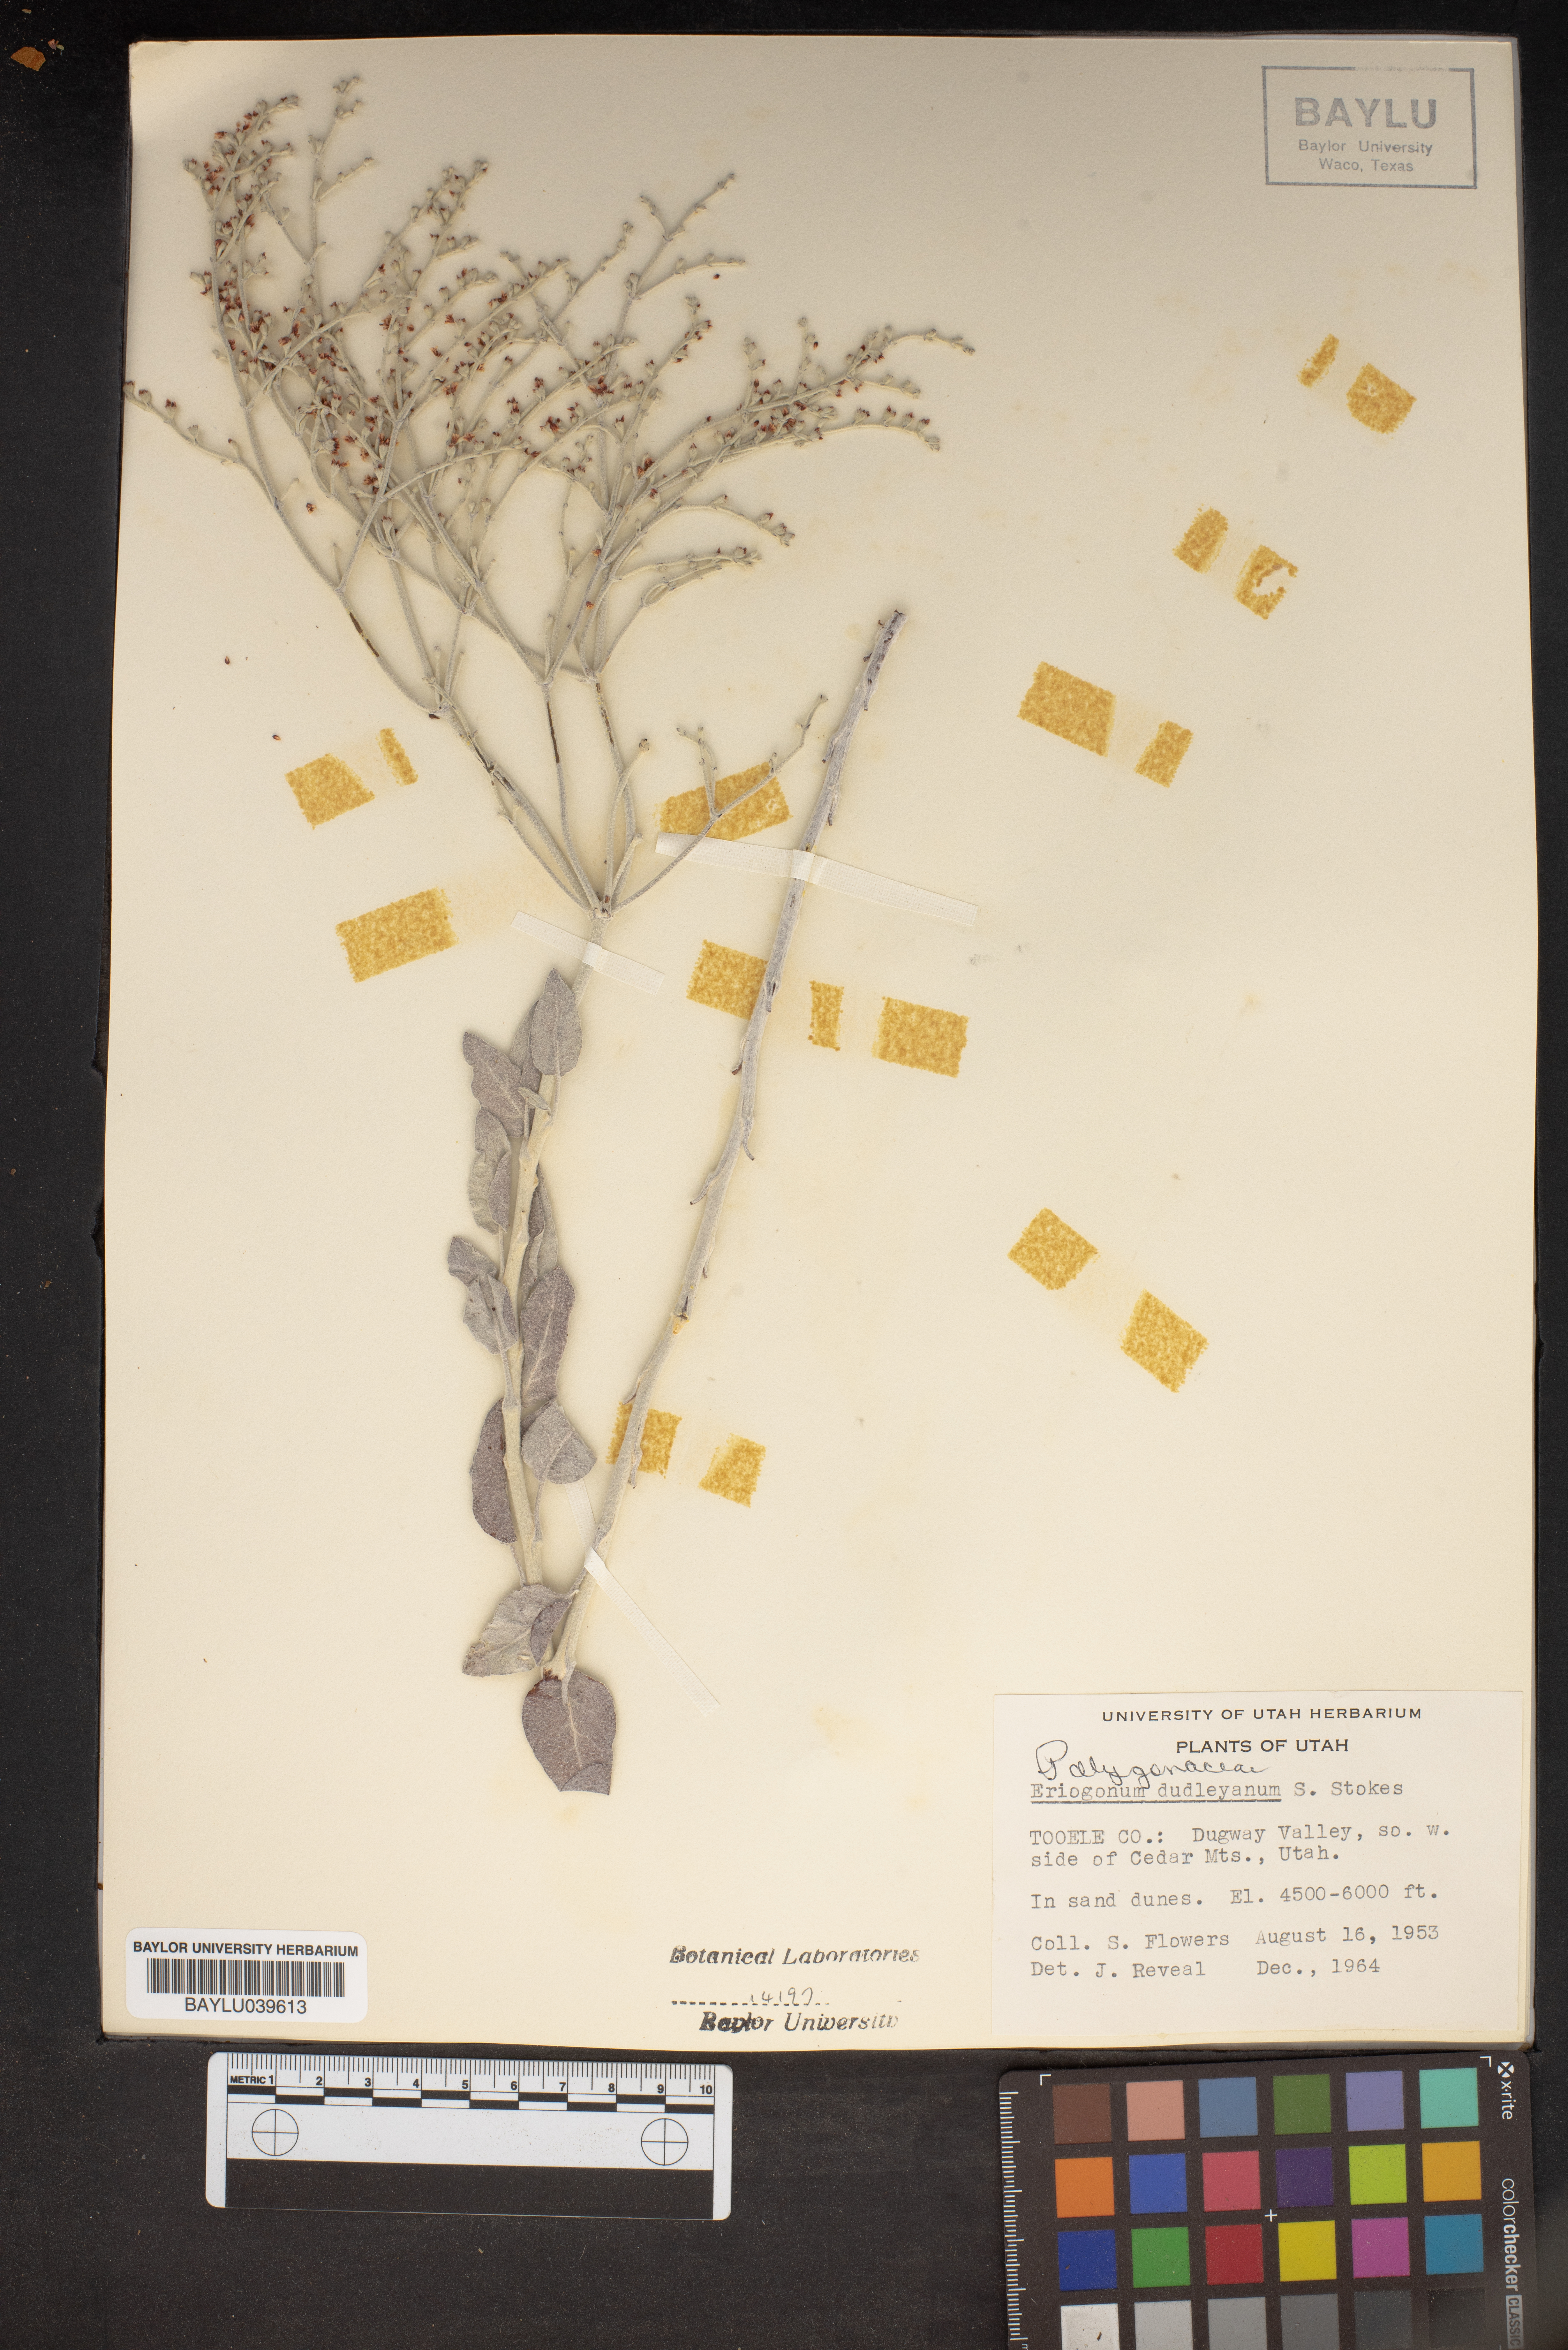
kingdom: Plantae
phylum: Tracheophyta
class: Magnoliopsida
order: Caryophyllales
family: Polygonaceae
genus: Eriogonum
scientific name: Eriogonum nummulare
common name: Kearney wild buckwheat
